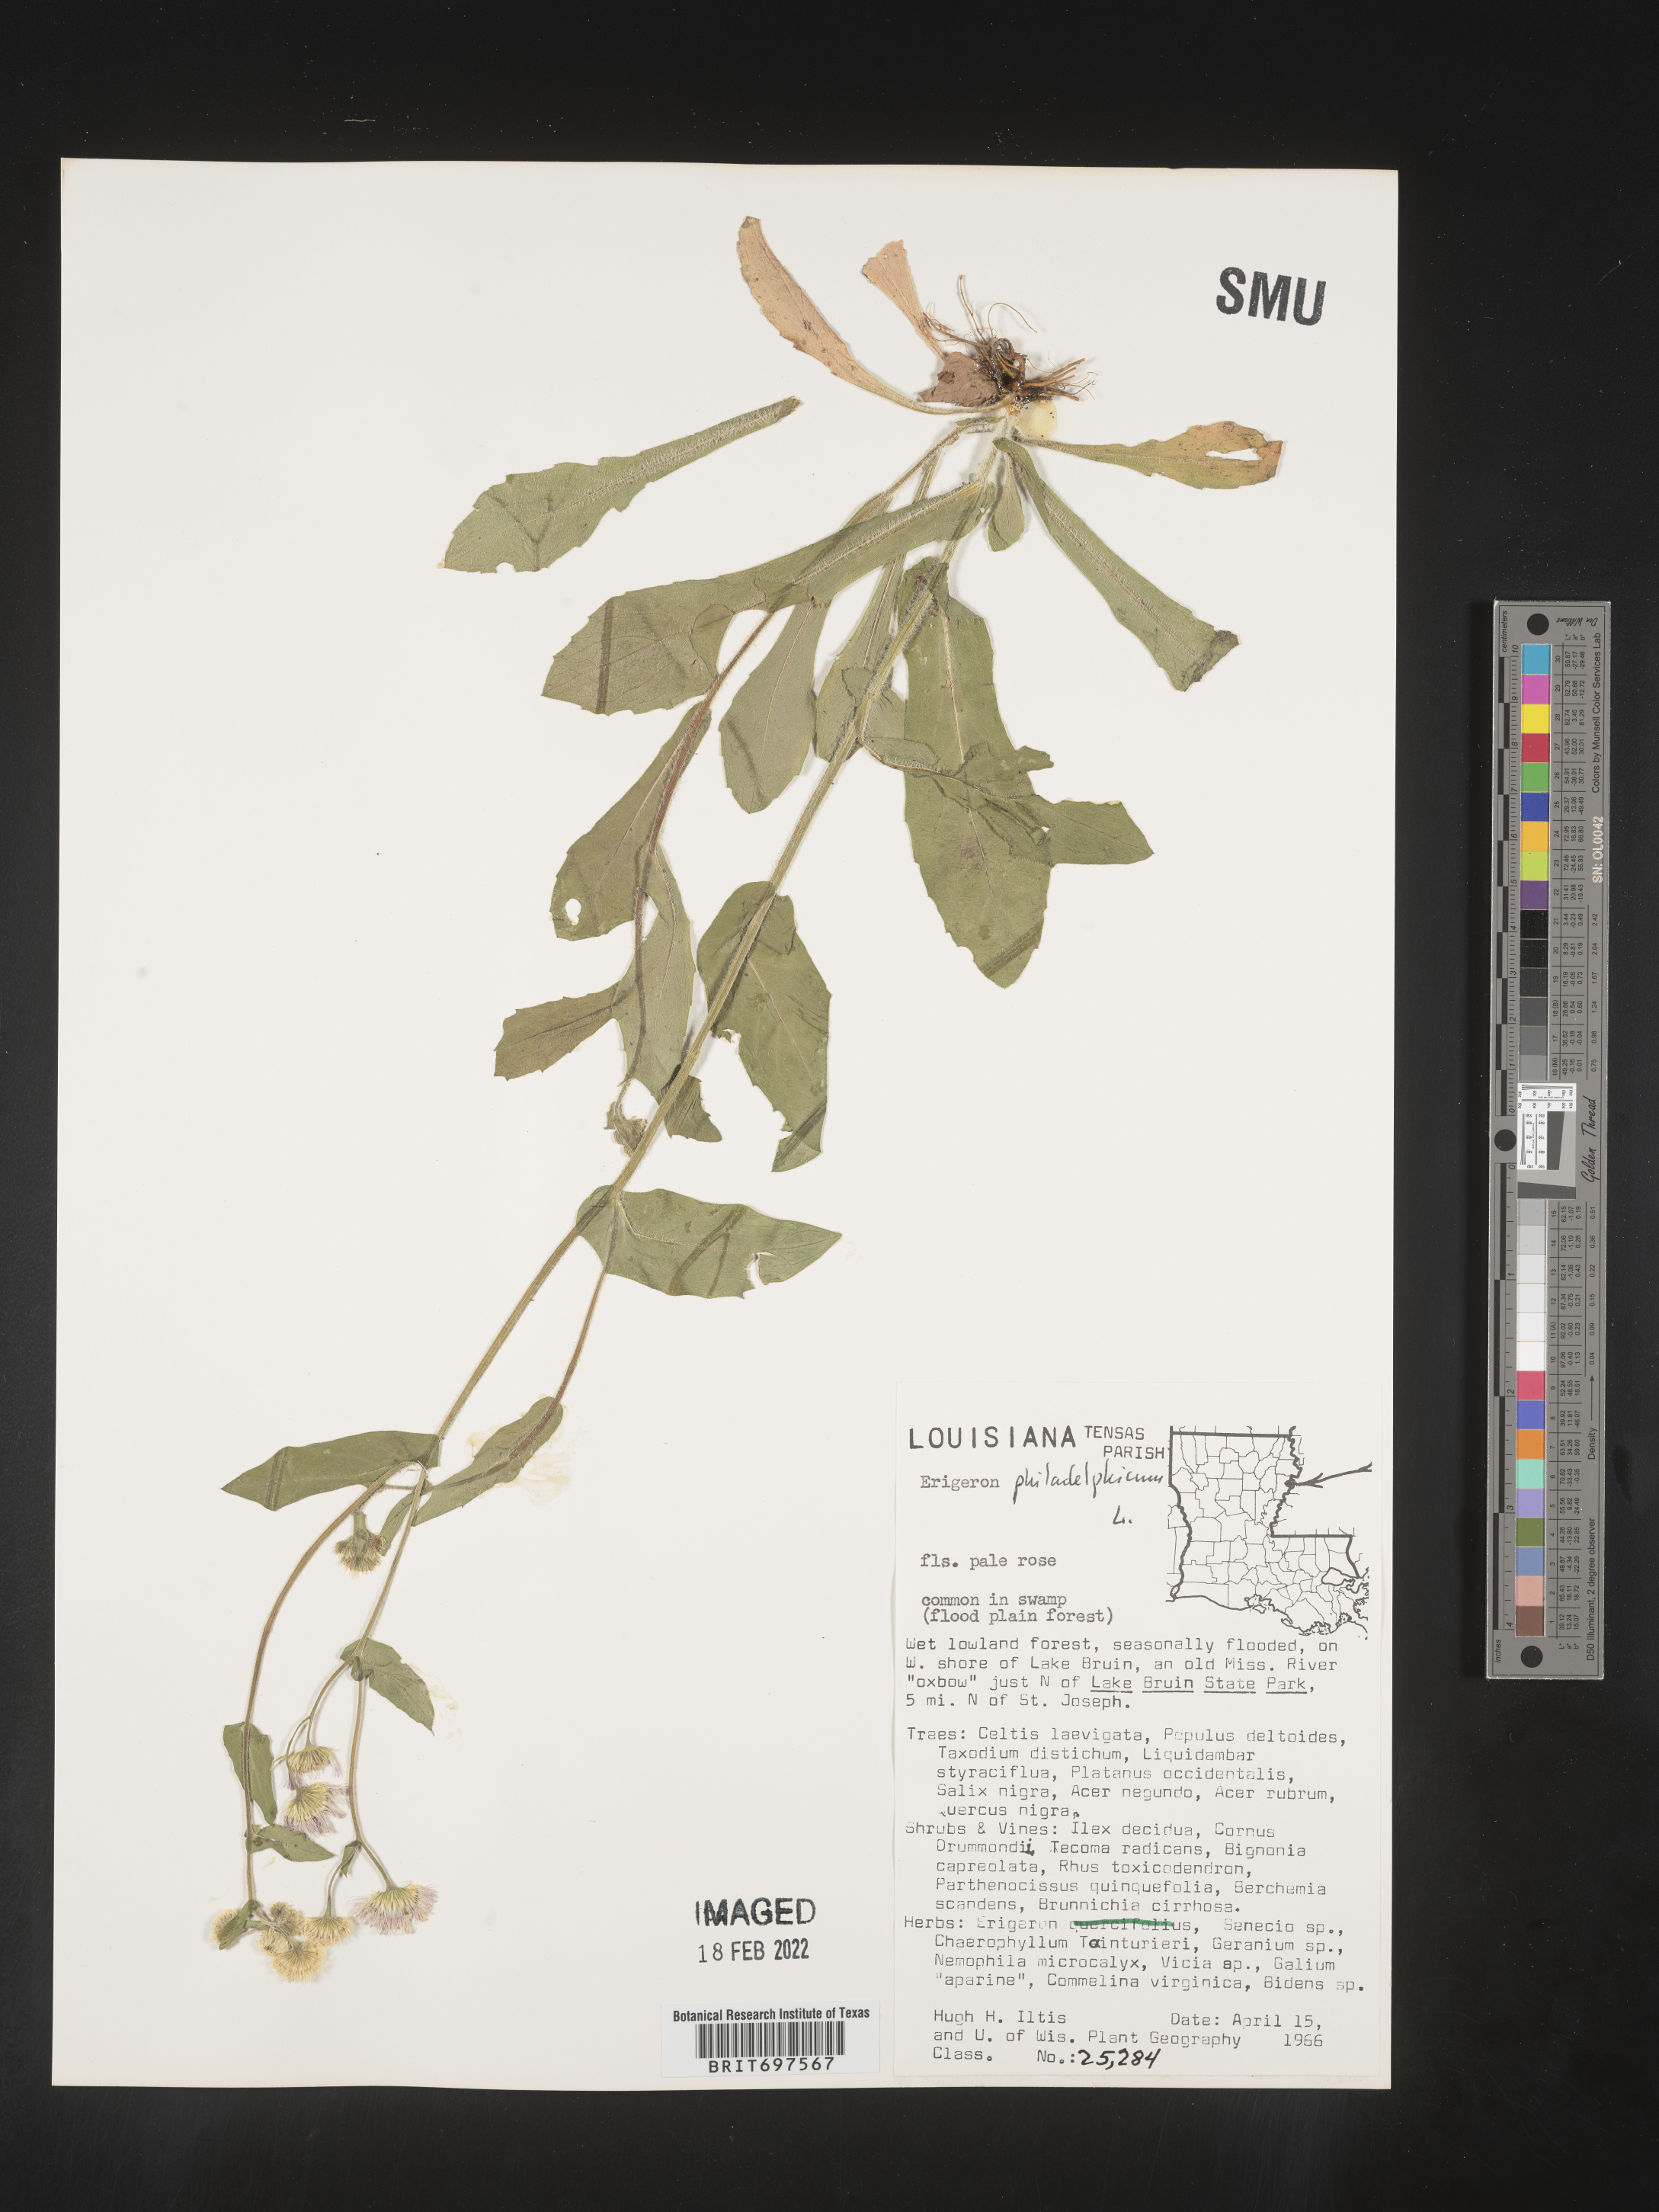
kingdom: Plantae
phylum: Tracheophyta
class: Magnoliopsida
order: Asterales
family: Asteraceae
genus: Erigeron
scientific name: Erigeron philadelphicus
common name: Robin's-plantain
